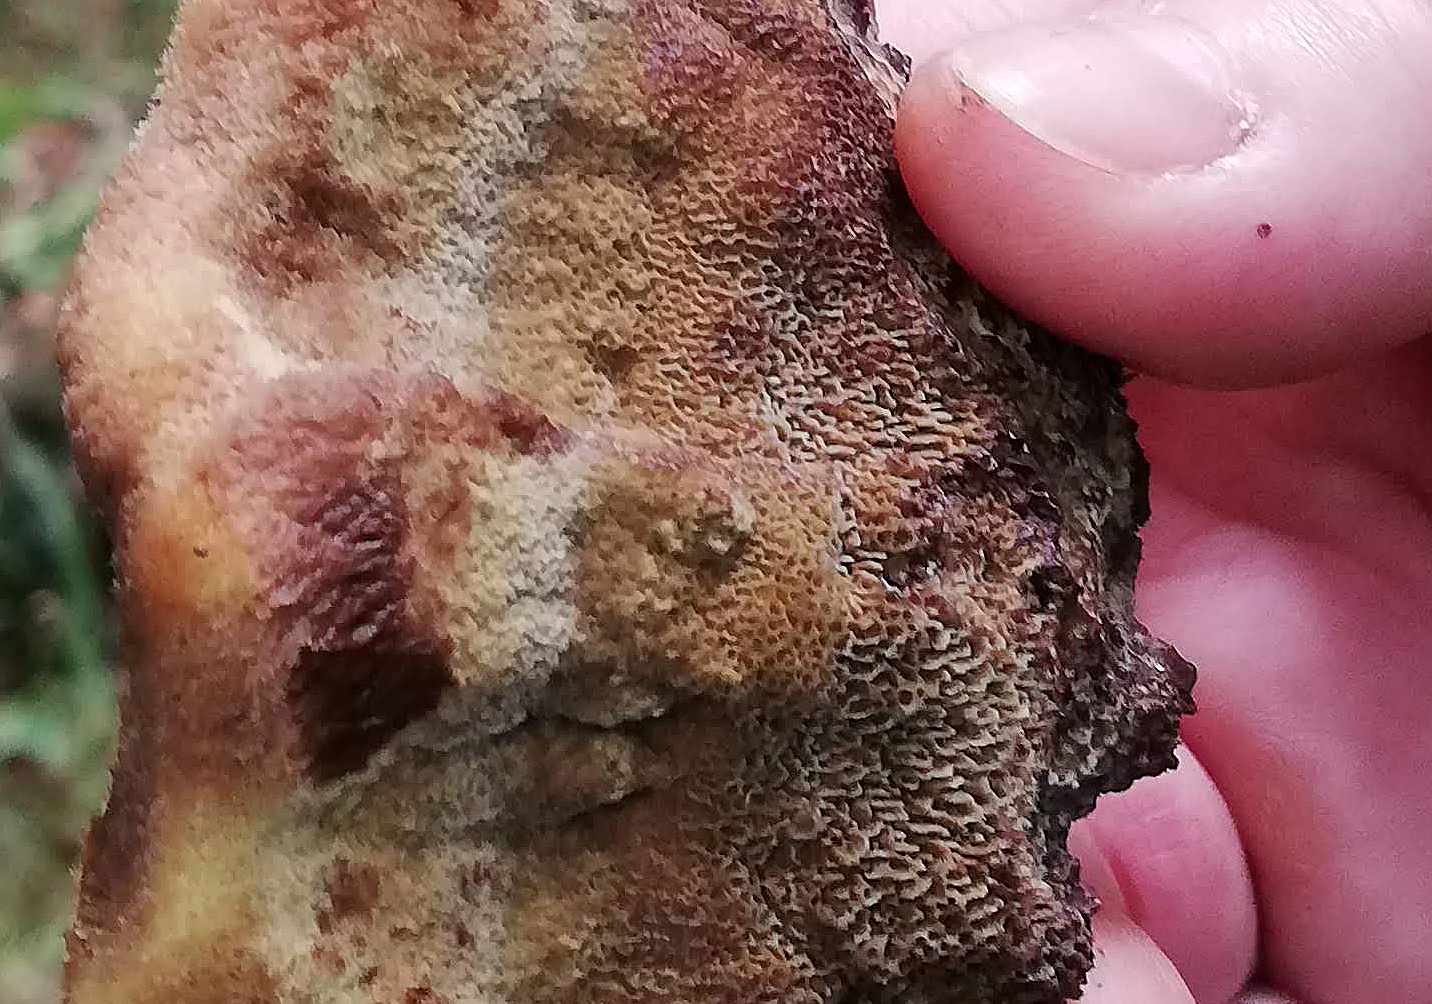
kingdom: Fungi
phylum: Basidiomycota
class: Agaricomycetes
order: Polyporales
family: Laetiporaceae
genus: Phaeolus
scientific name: Phaeolus schweinitzii
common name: brunporesvamp
